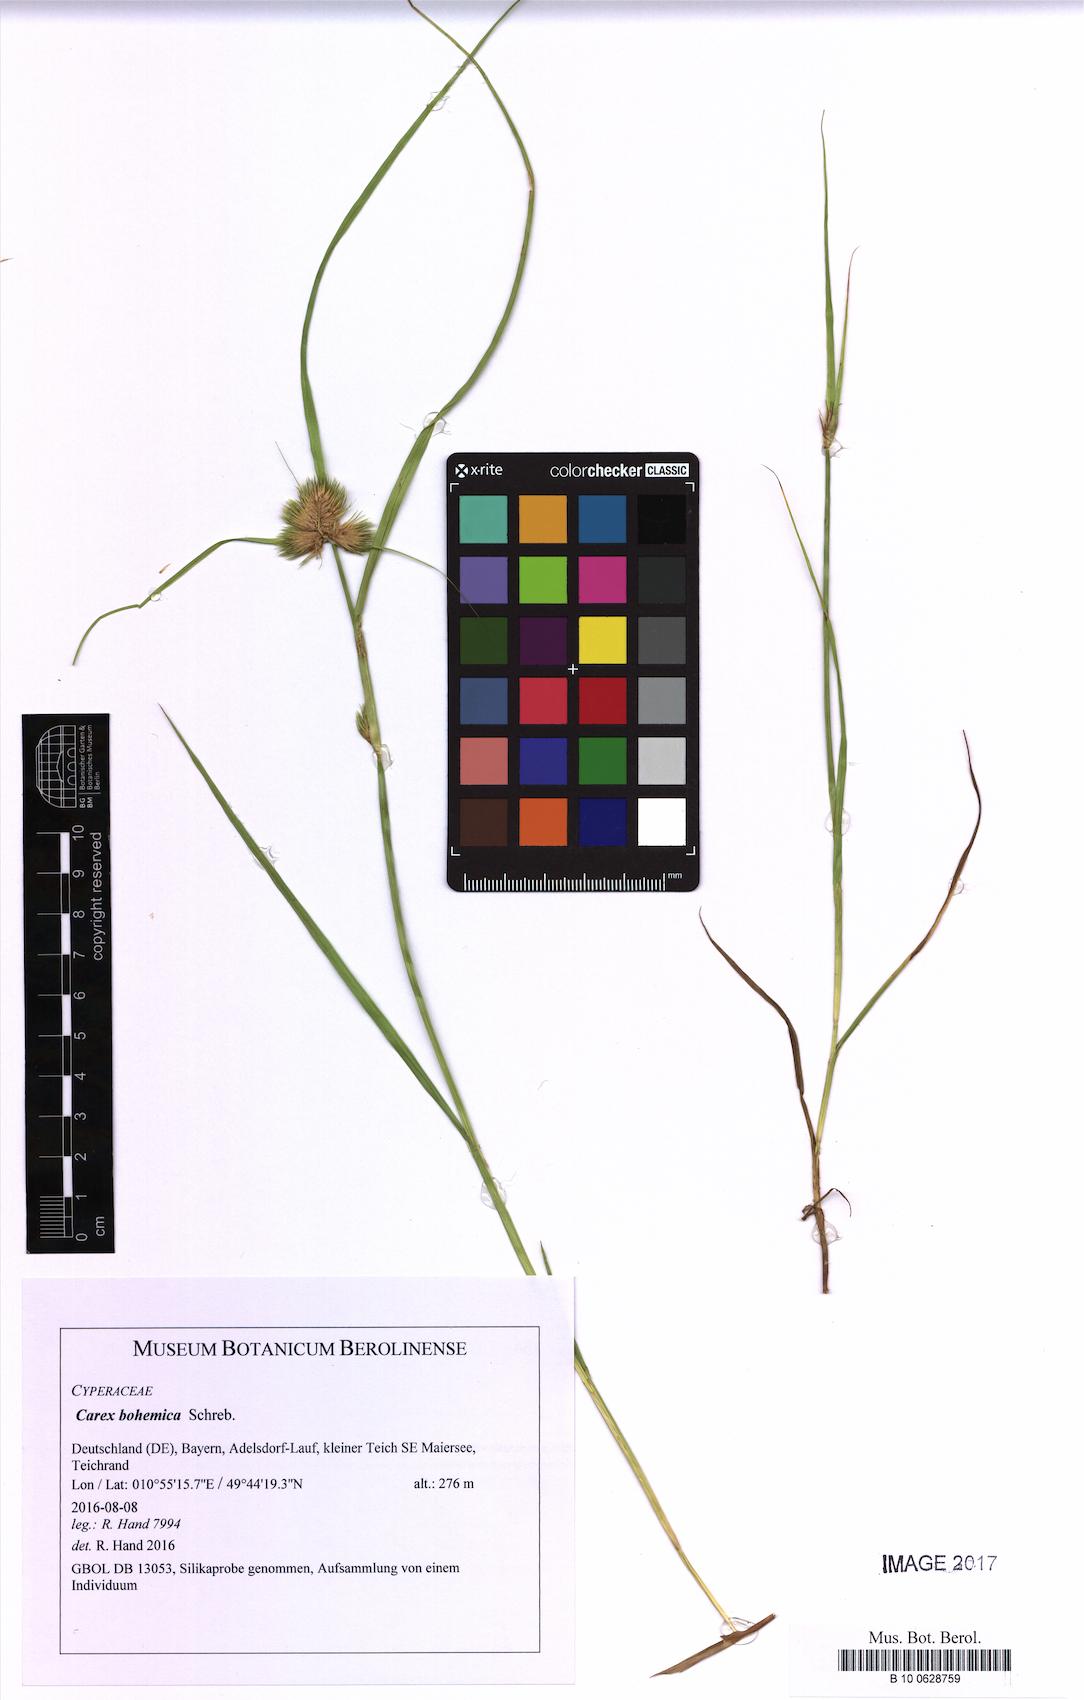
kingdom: Plantae
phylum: Tracheophyta
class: Liliopsida
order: Poales
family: Cyperaceae
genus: Carex
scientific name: Carex bohemica
